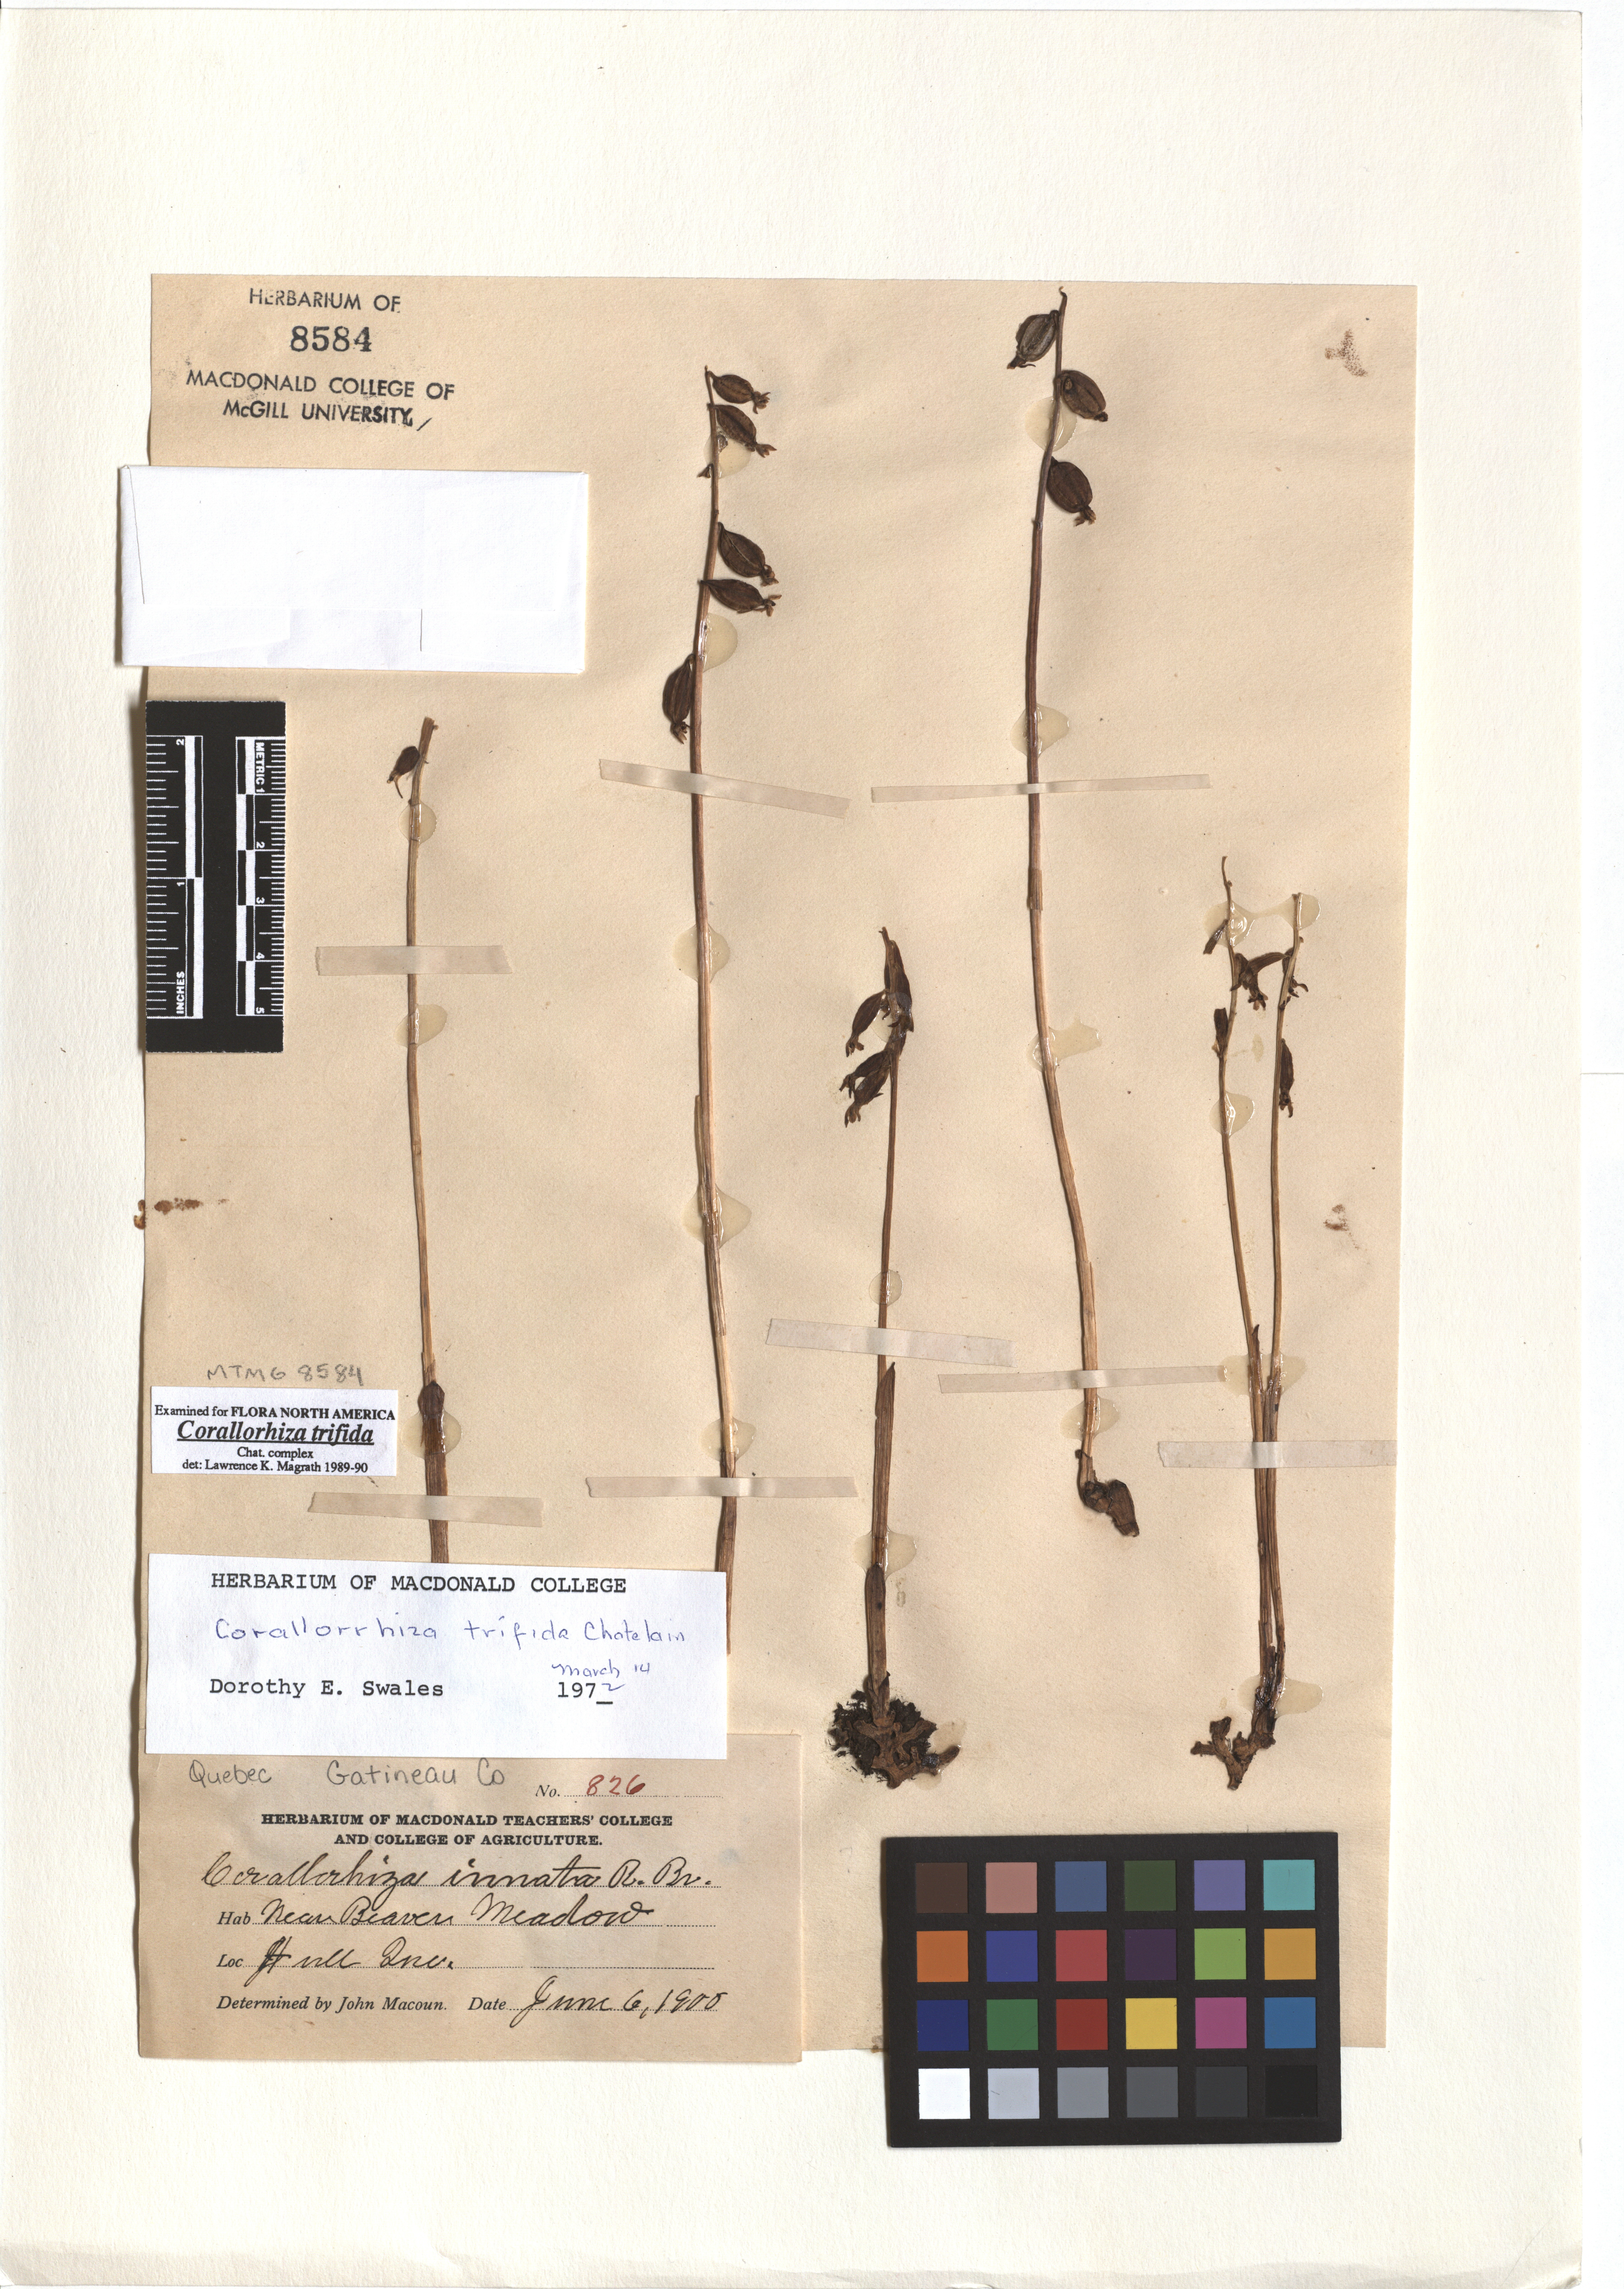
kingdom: Plantae
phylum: Tracheophyta
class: Liliopsida
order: Asparagales
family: Orchidaceae
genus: Corallorhiza
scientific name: Corallorhiza trifida
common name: Yellow coralroot
